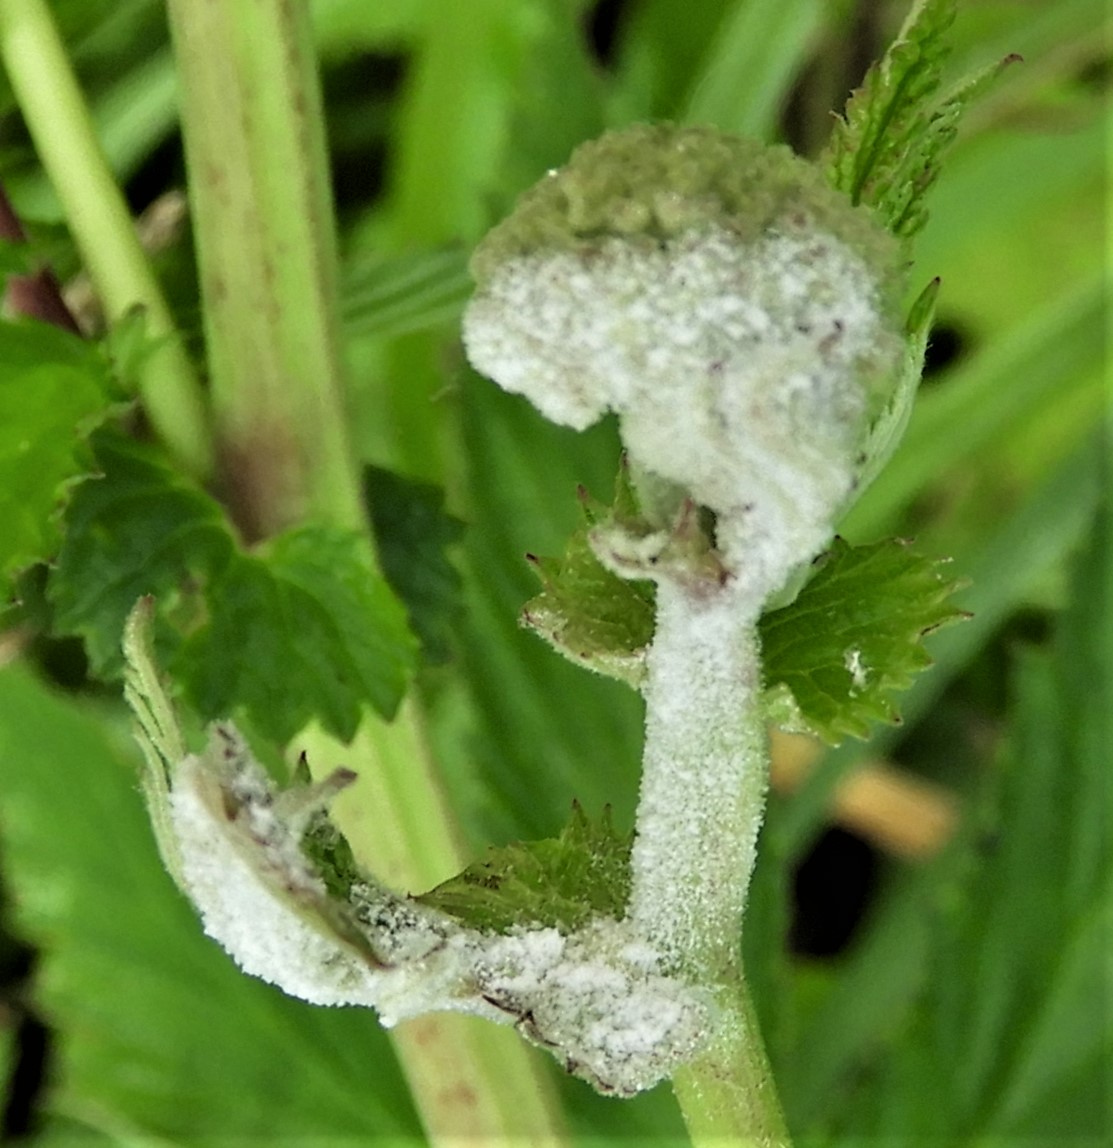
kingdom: Fungi
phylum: Ascomycota
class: Leotiomycetes
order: Helotiales
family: Erysiphaceae
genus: Podosphaera
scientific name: Podosphaera filipendulae
